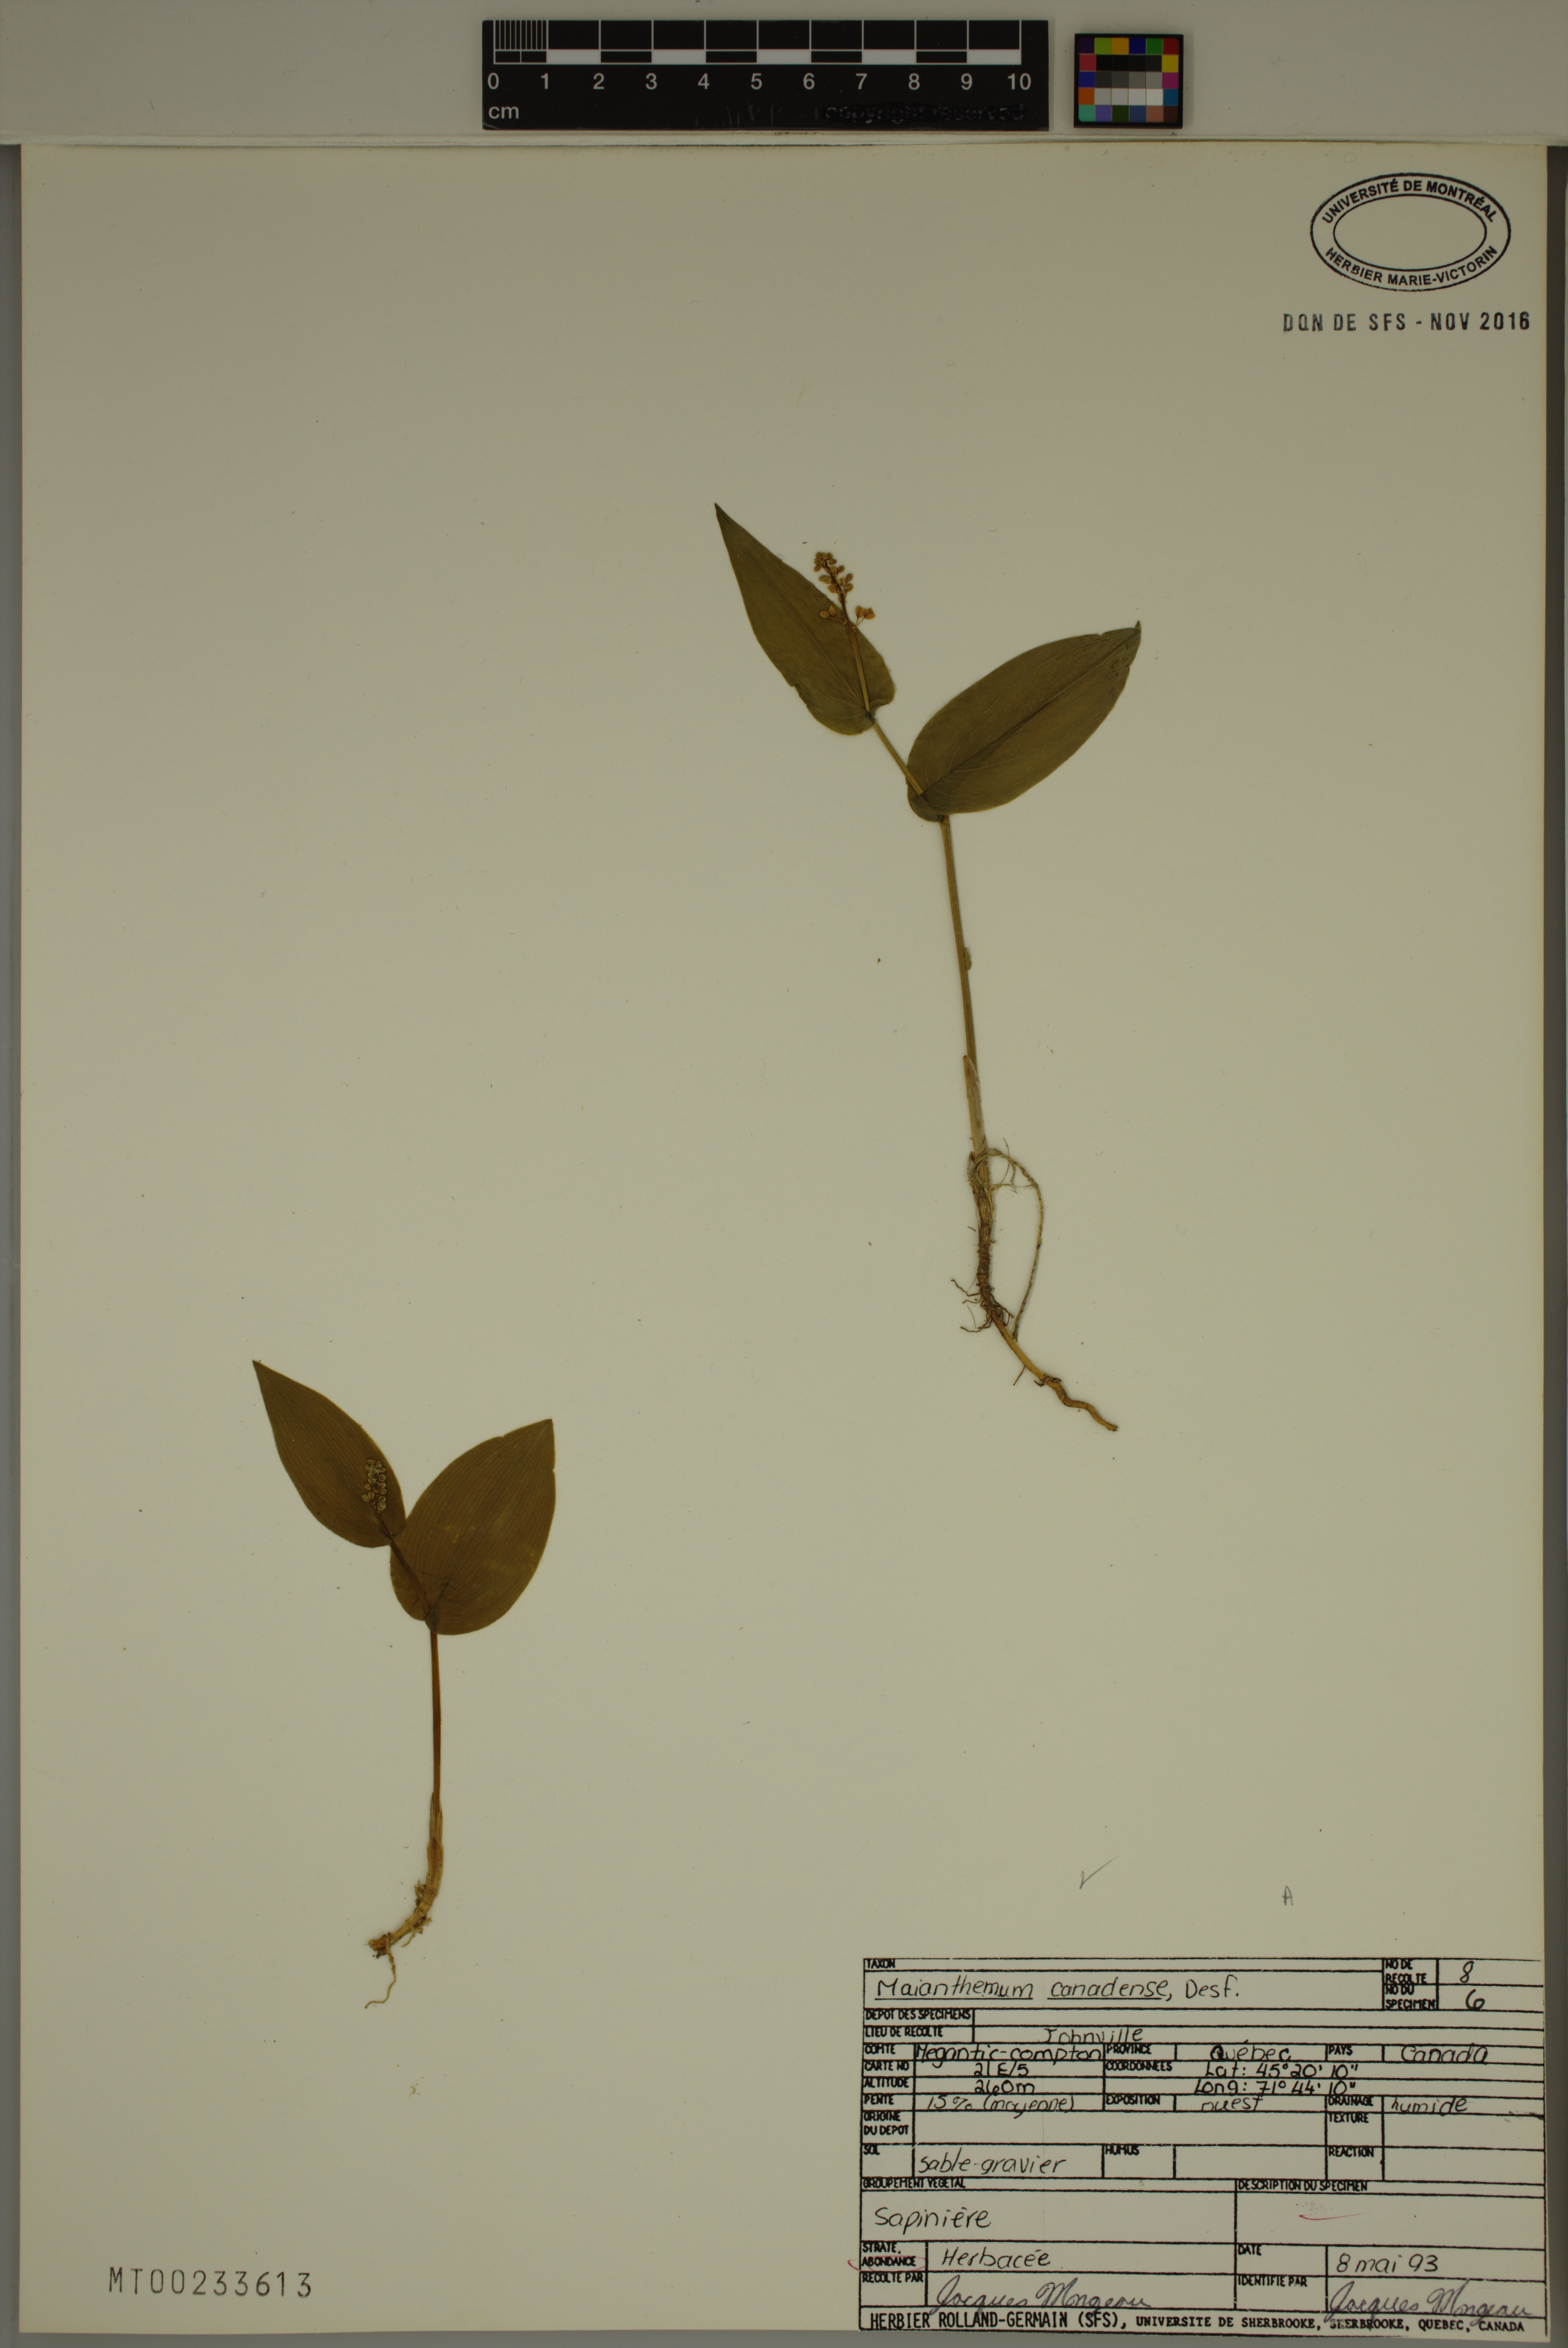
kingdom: Plantae
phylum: Tracheophyta
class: Liliopsida
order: Asparagales
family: Asparagaceae
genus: Maianthemum
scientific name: Maianthemum canadense
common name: False lily-of-the-valley
